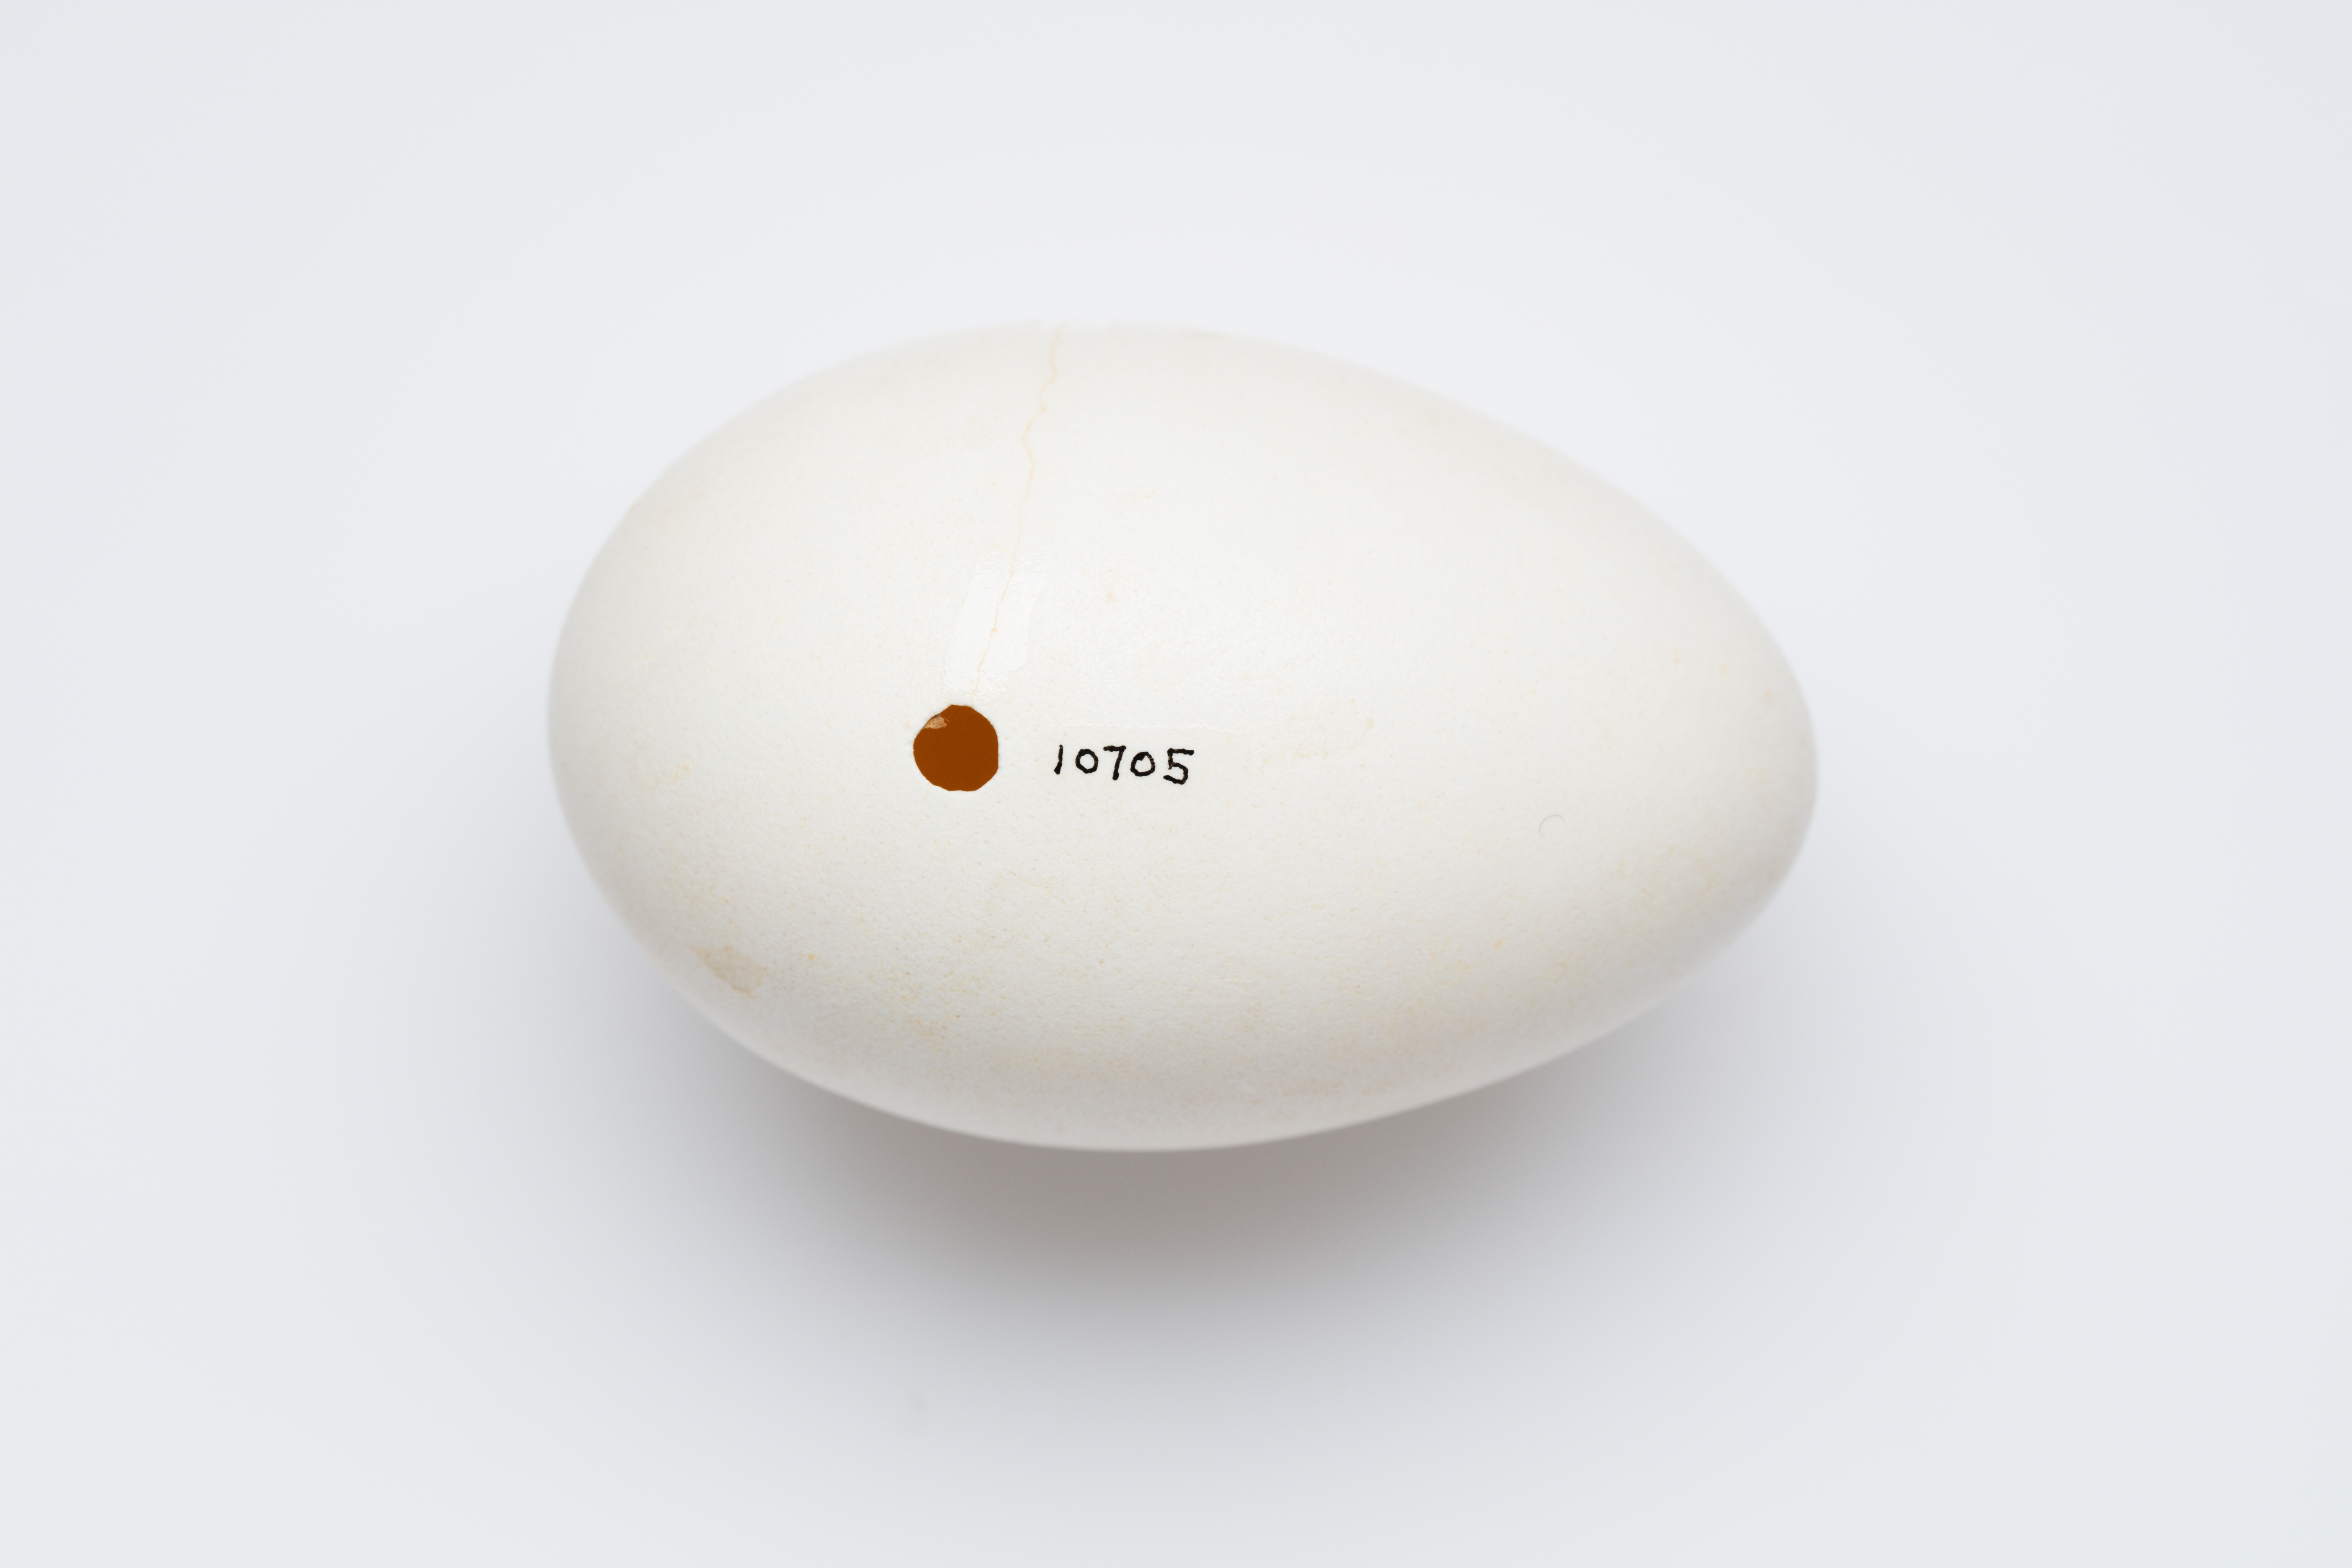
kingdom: Animalia
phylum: Chordata
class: Aves
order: Anseriformes
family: Anatidae
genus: Branta
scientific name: Branta canadensis
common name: Canada goose
